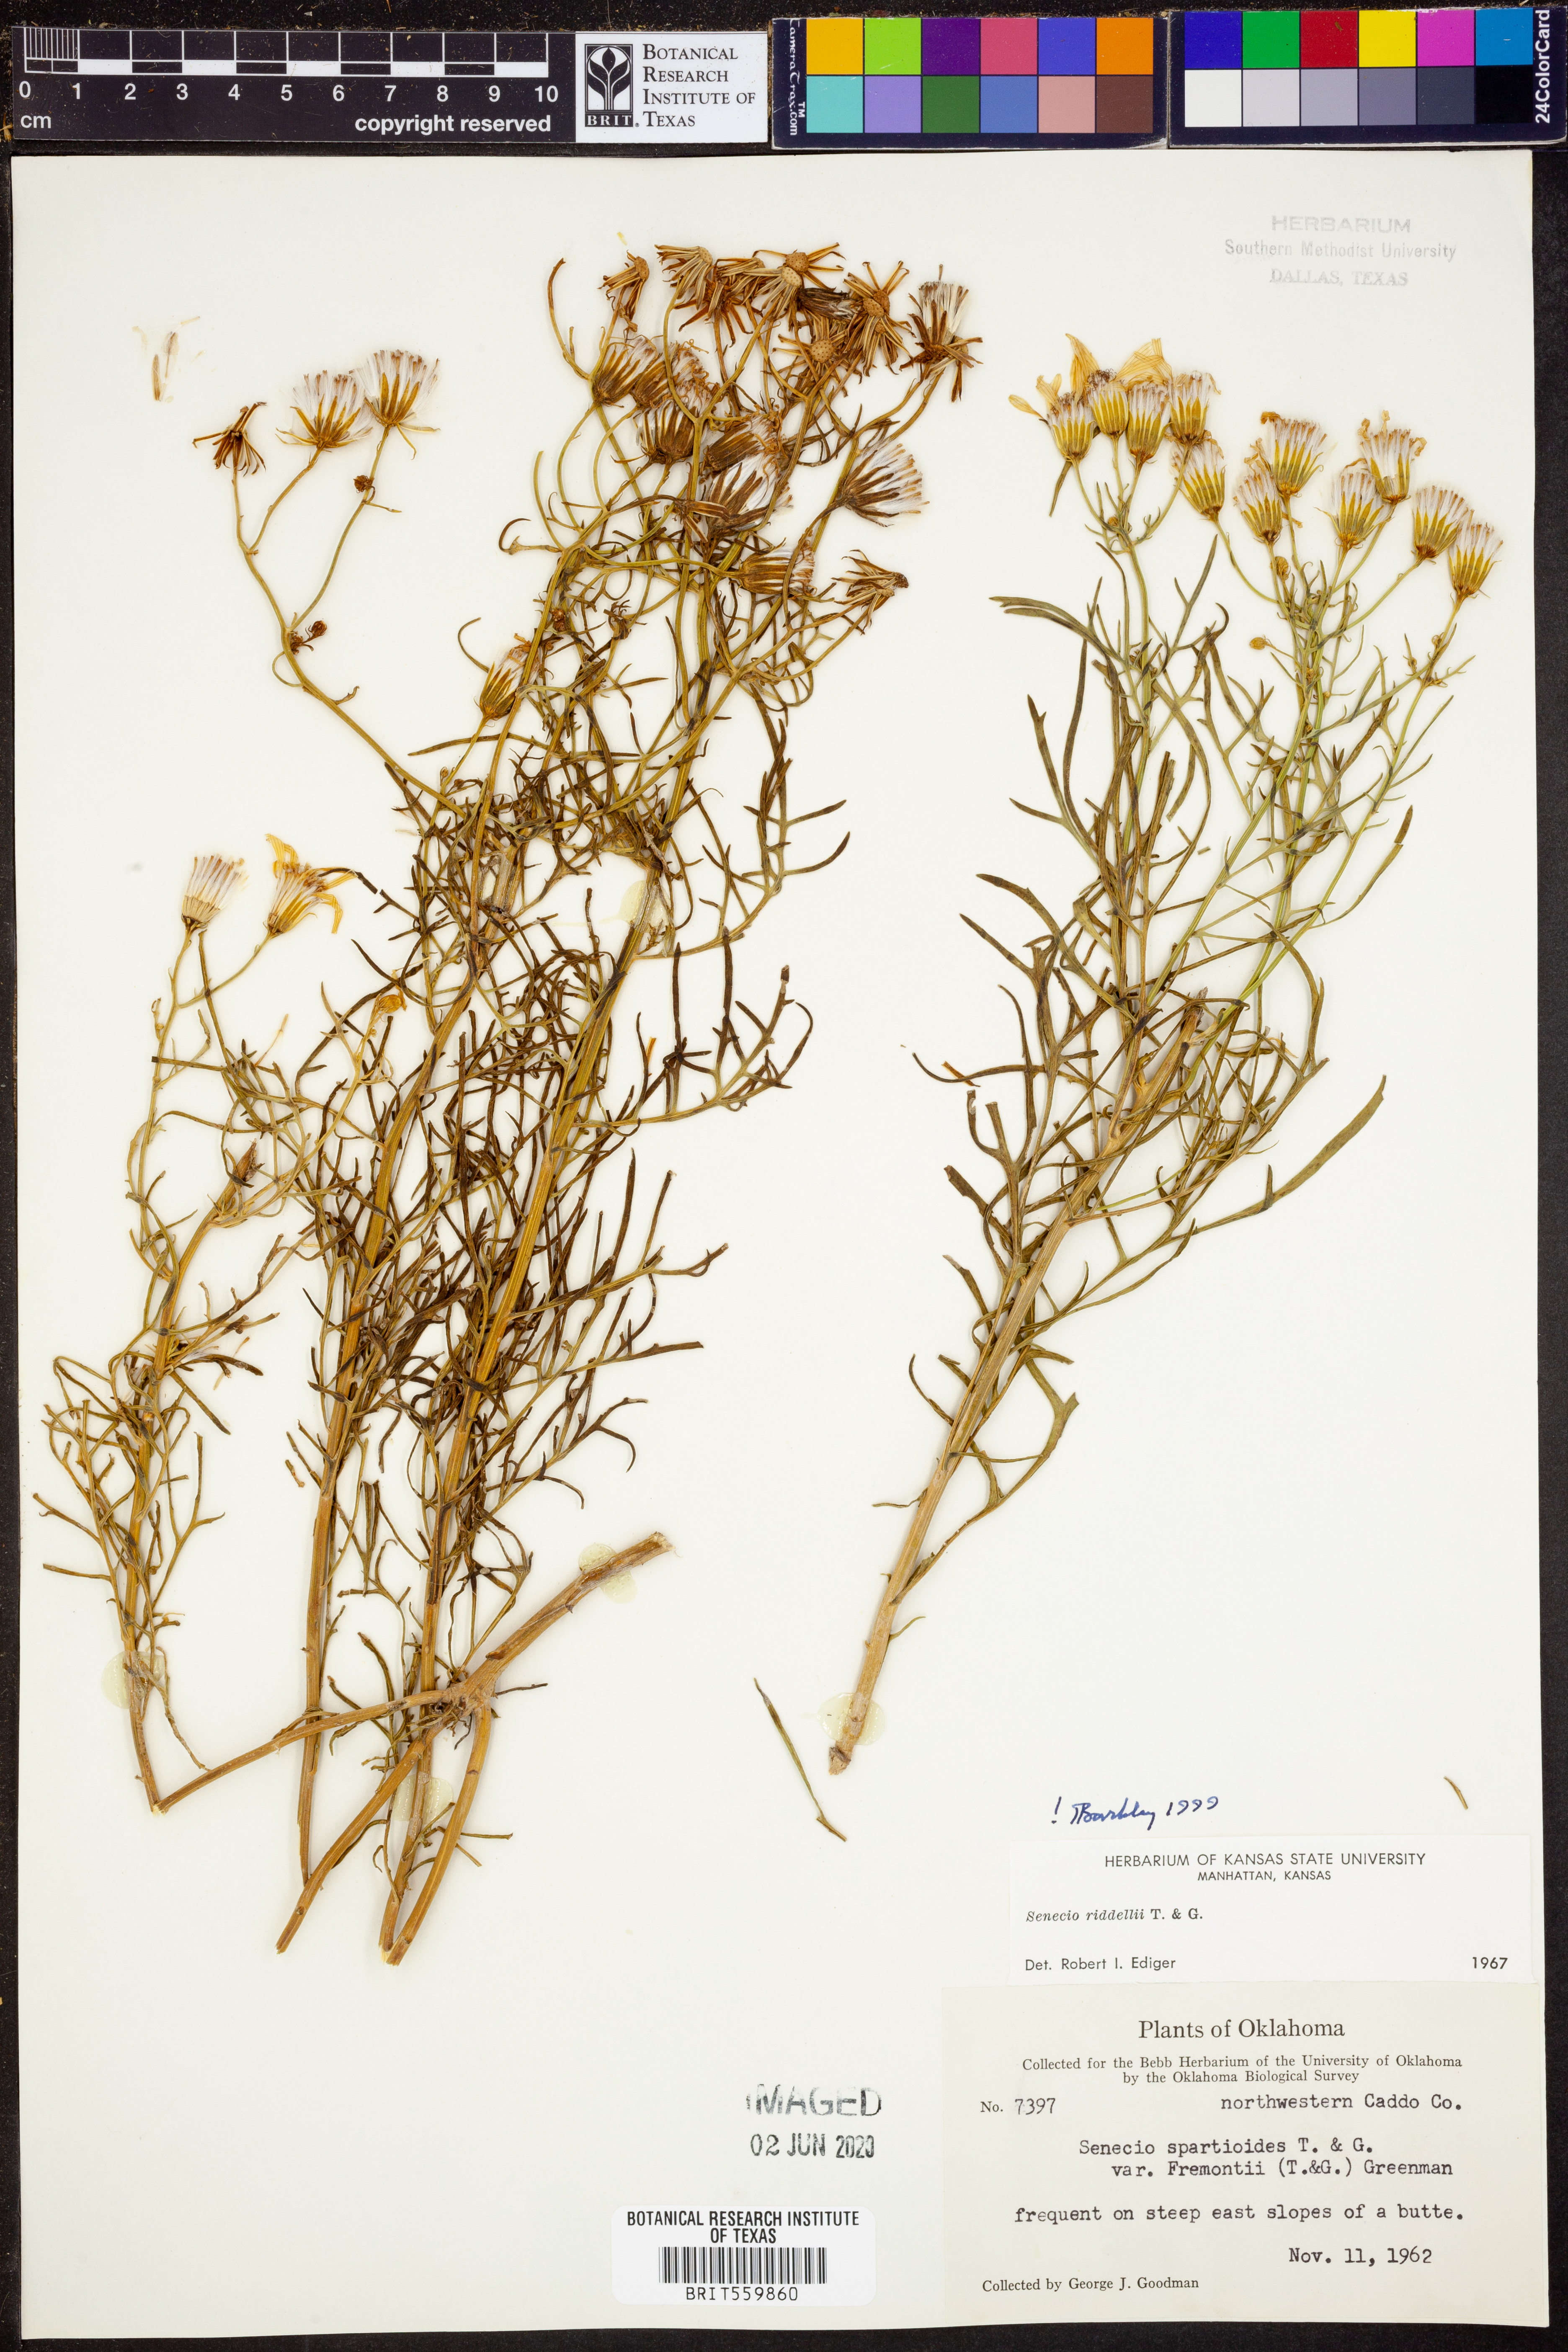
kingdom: Plantae
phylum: Tracheophyta
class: Magnoliopsida
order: Asterales
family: Asteraceae
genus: Senecio
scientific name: Senecio riddellii
